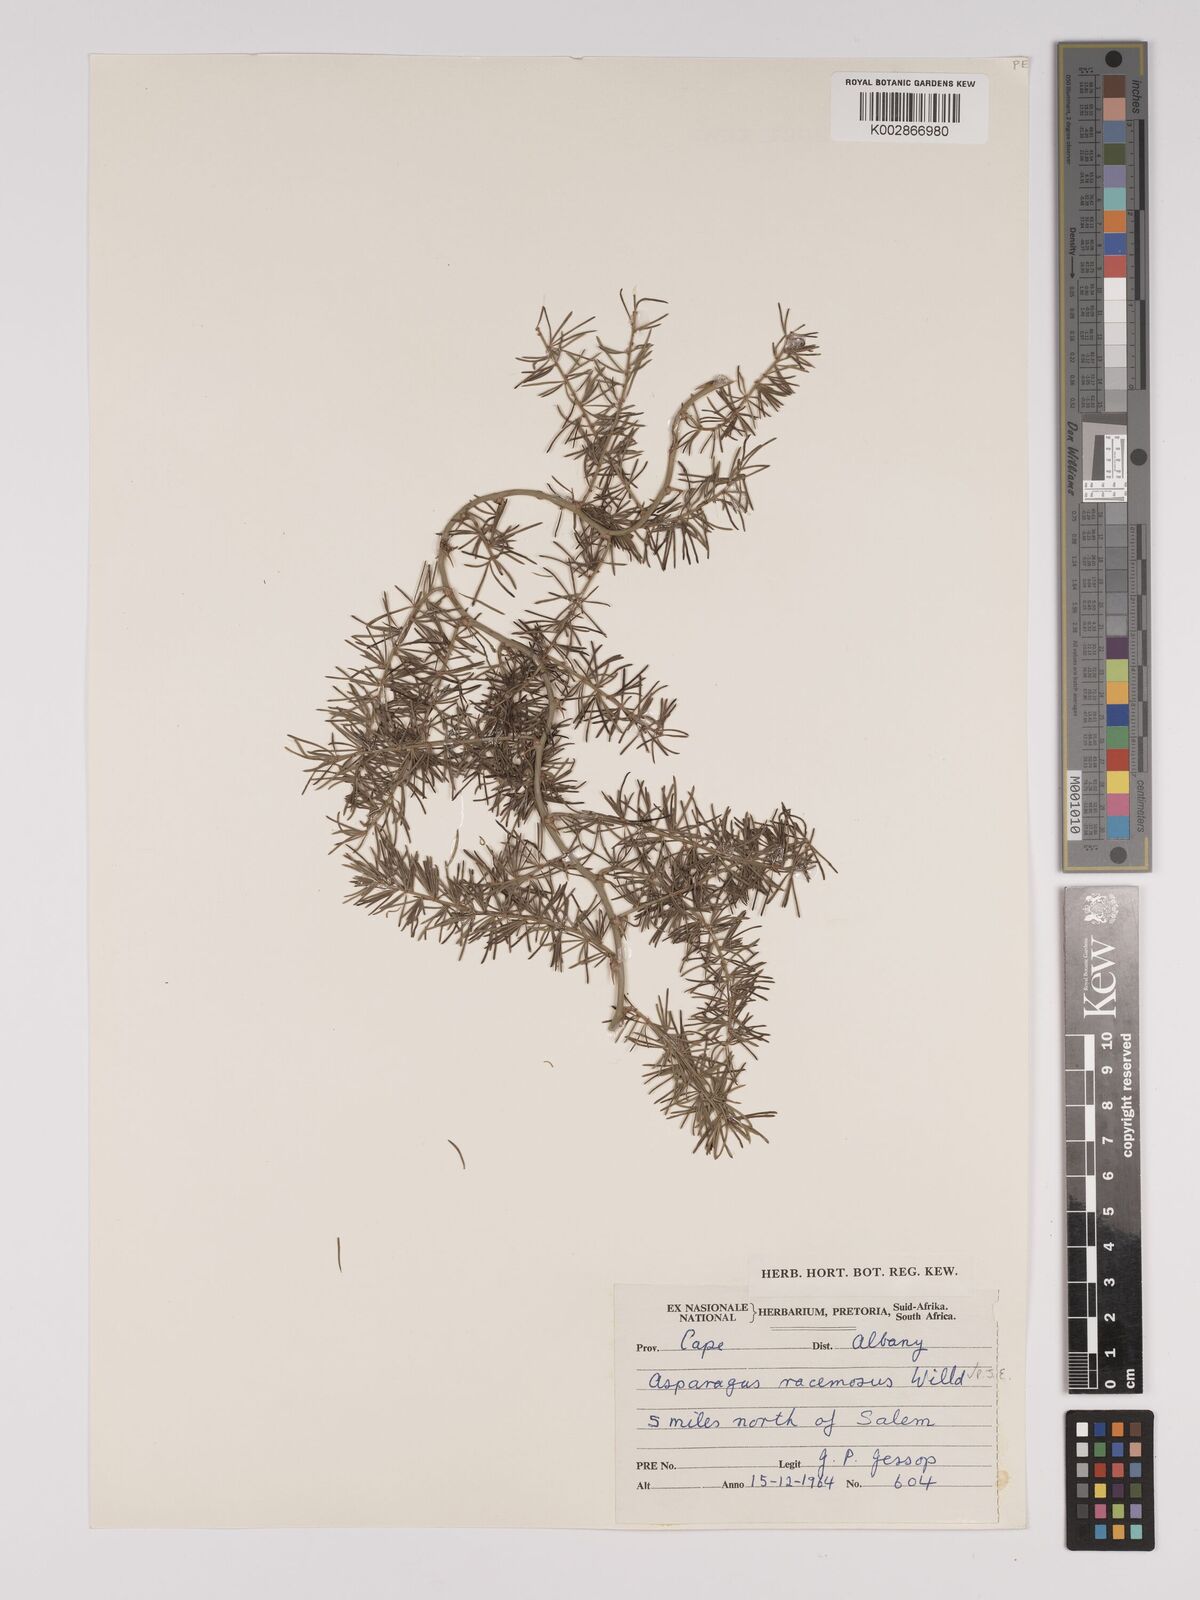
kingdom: Plantae
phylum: Tracheophyta
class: Liliopsida
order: Asparagales
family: Asparagaceae
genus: Asparagus
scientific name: Asparagus racemosus
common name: Asparagus-fern
